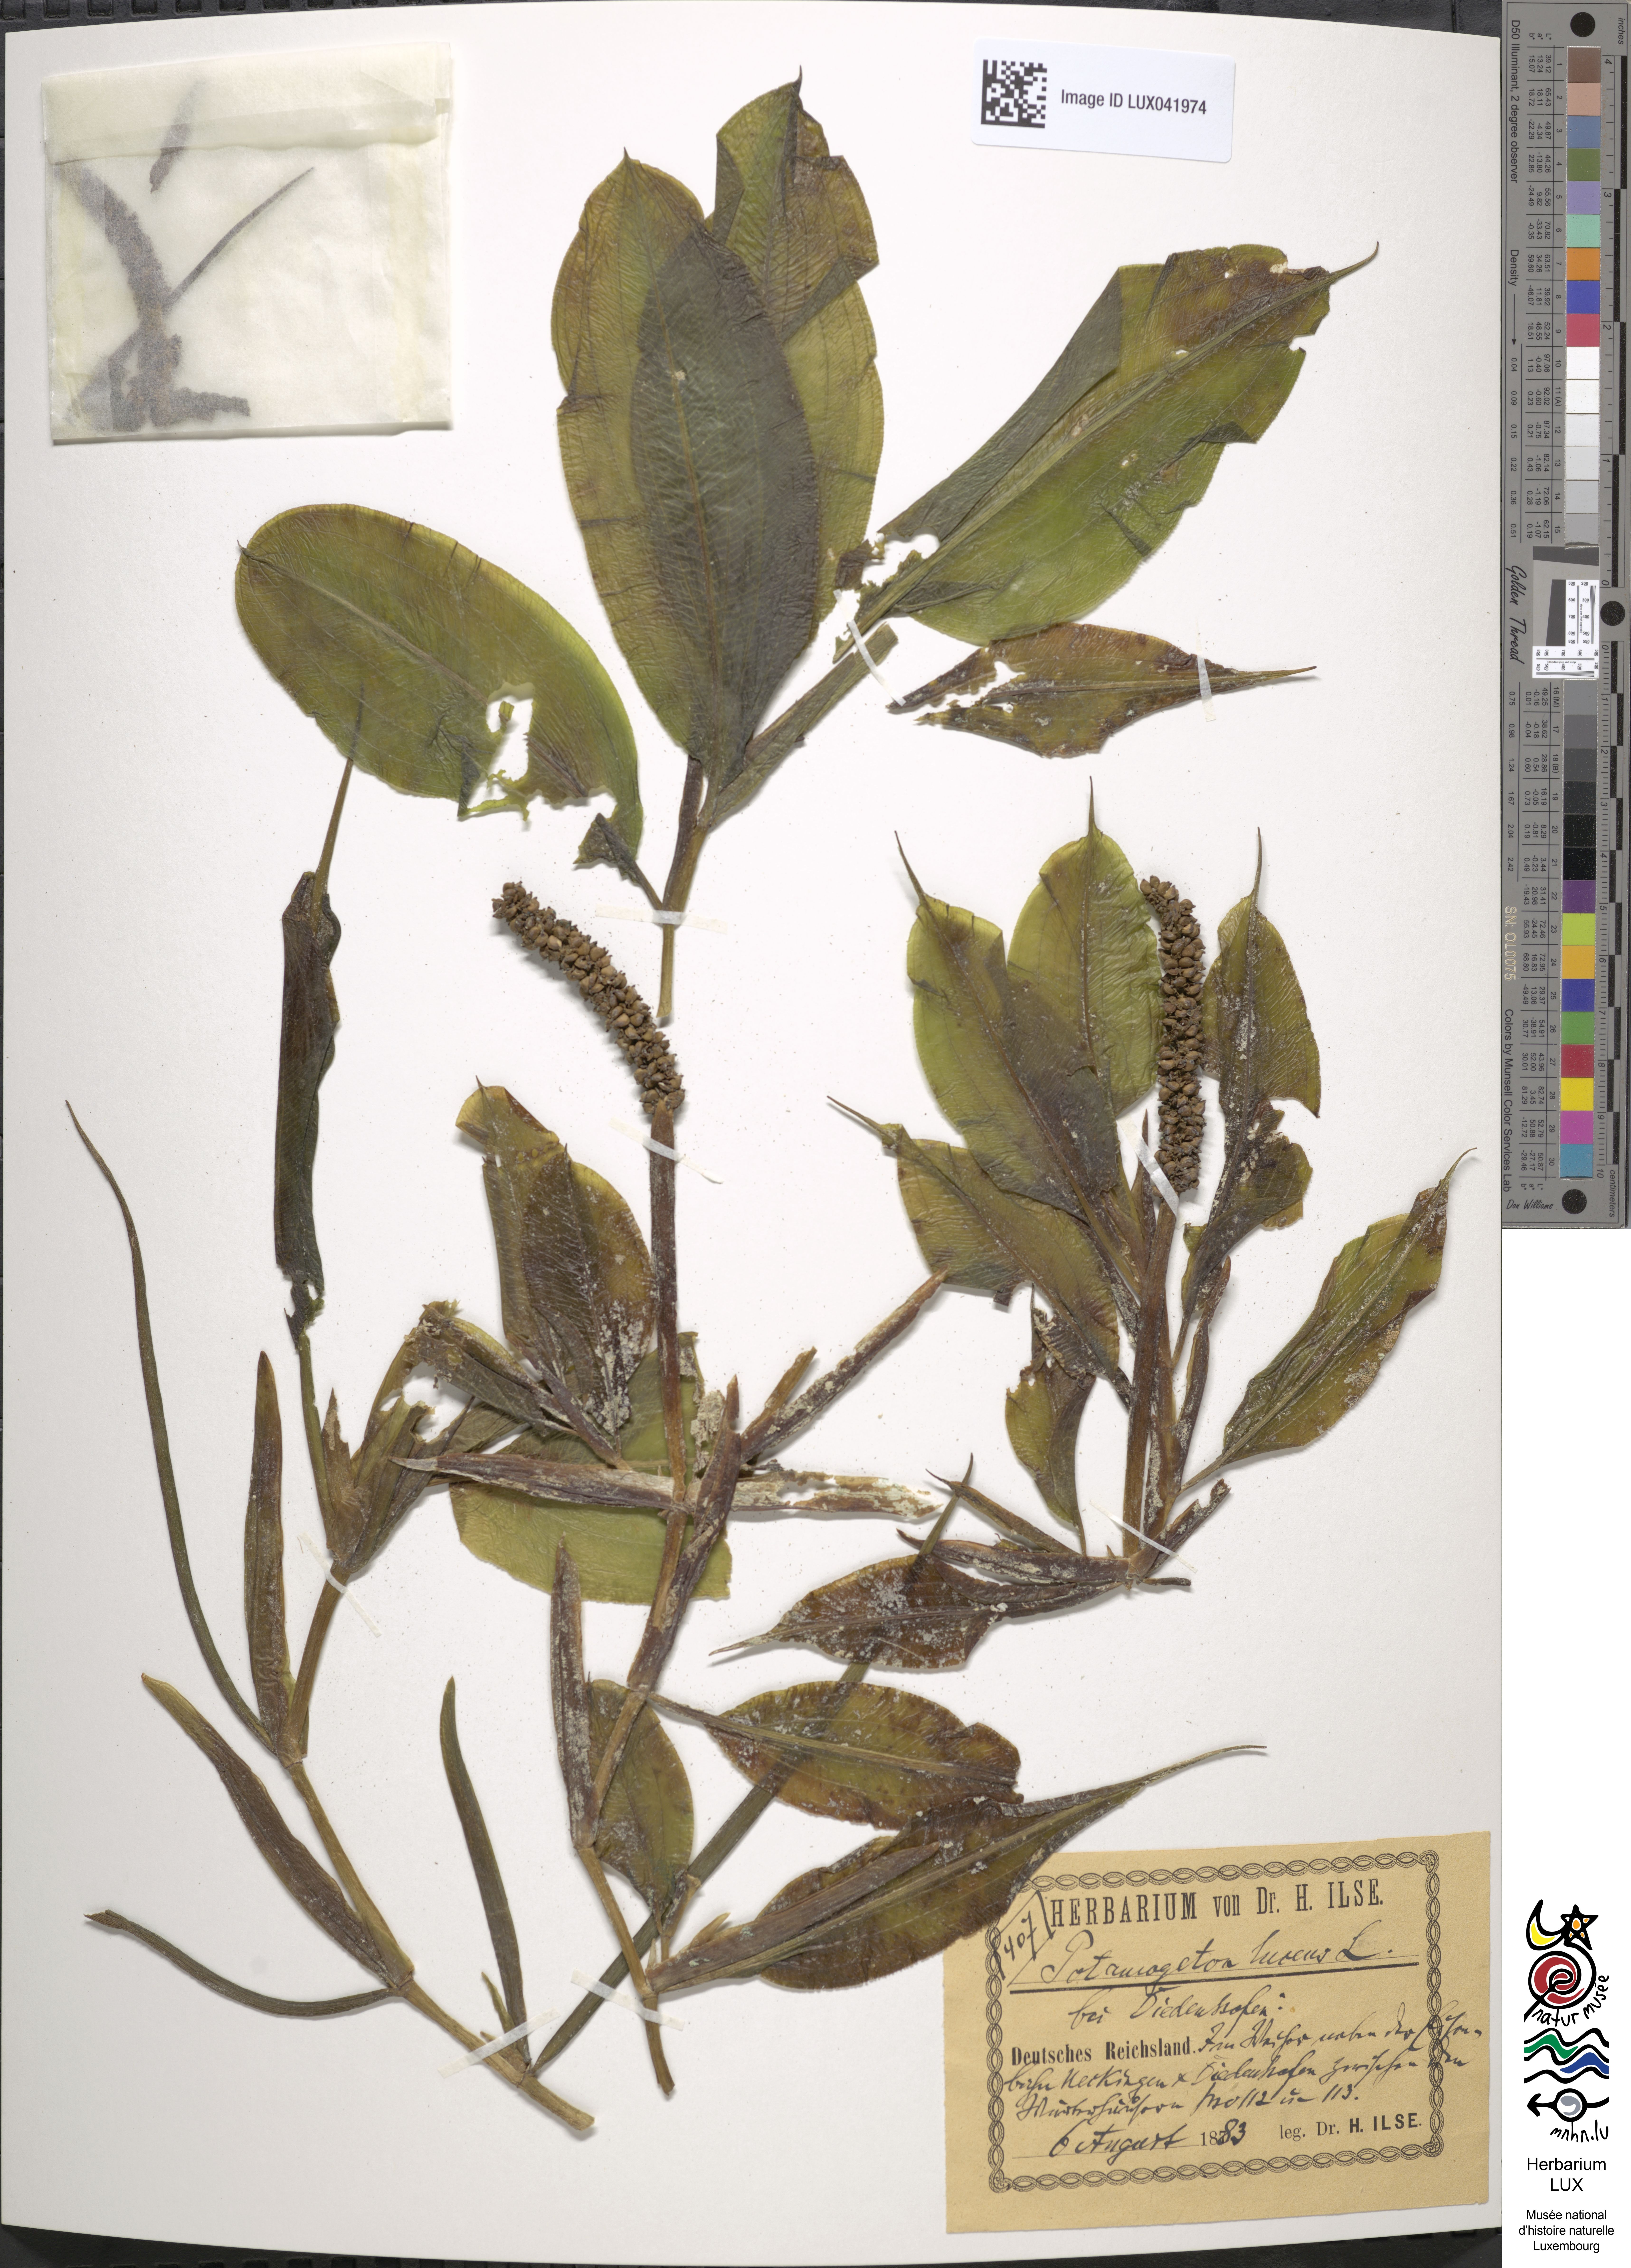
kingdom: Plantae
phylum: Tracheophyta
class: Liliopsida
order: Alismatales
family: Potamogetonaceae
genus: Potamogeton
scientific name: Potamogeton lucens
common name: Shining pondweed
